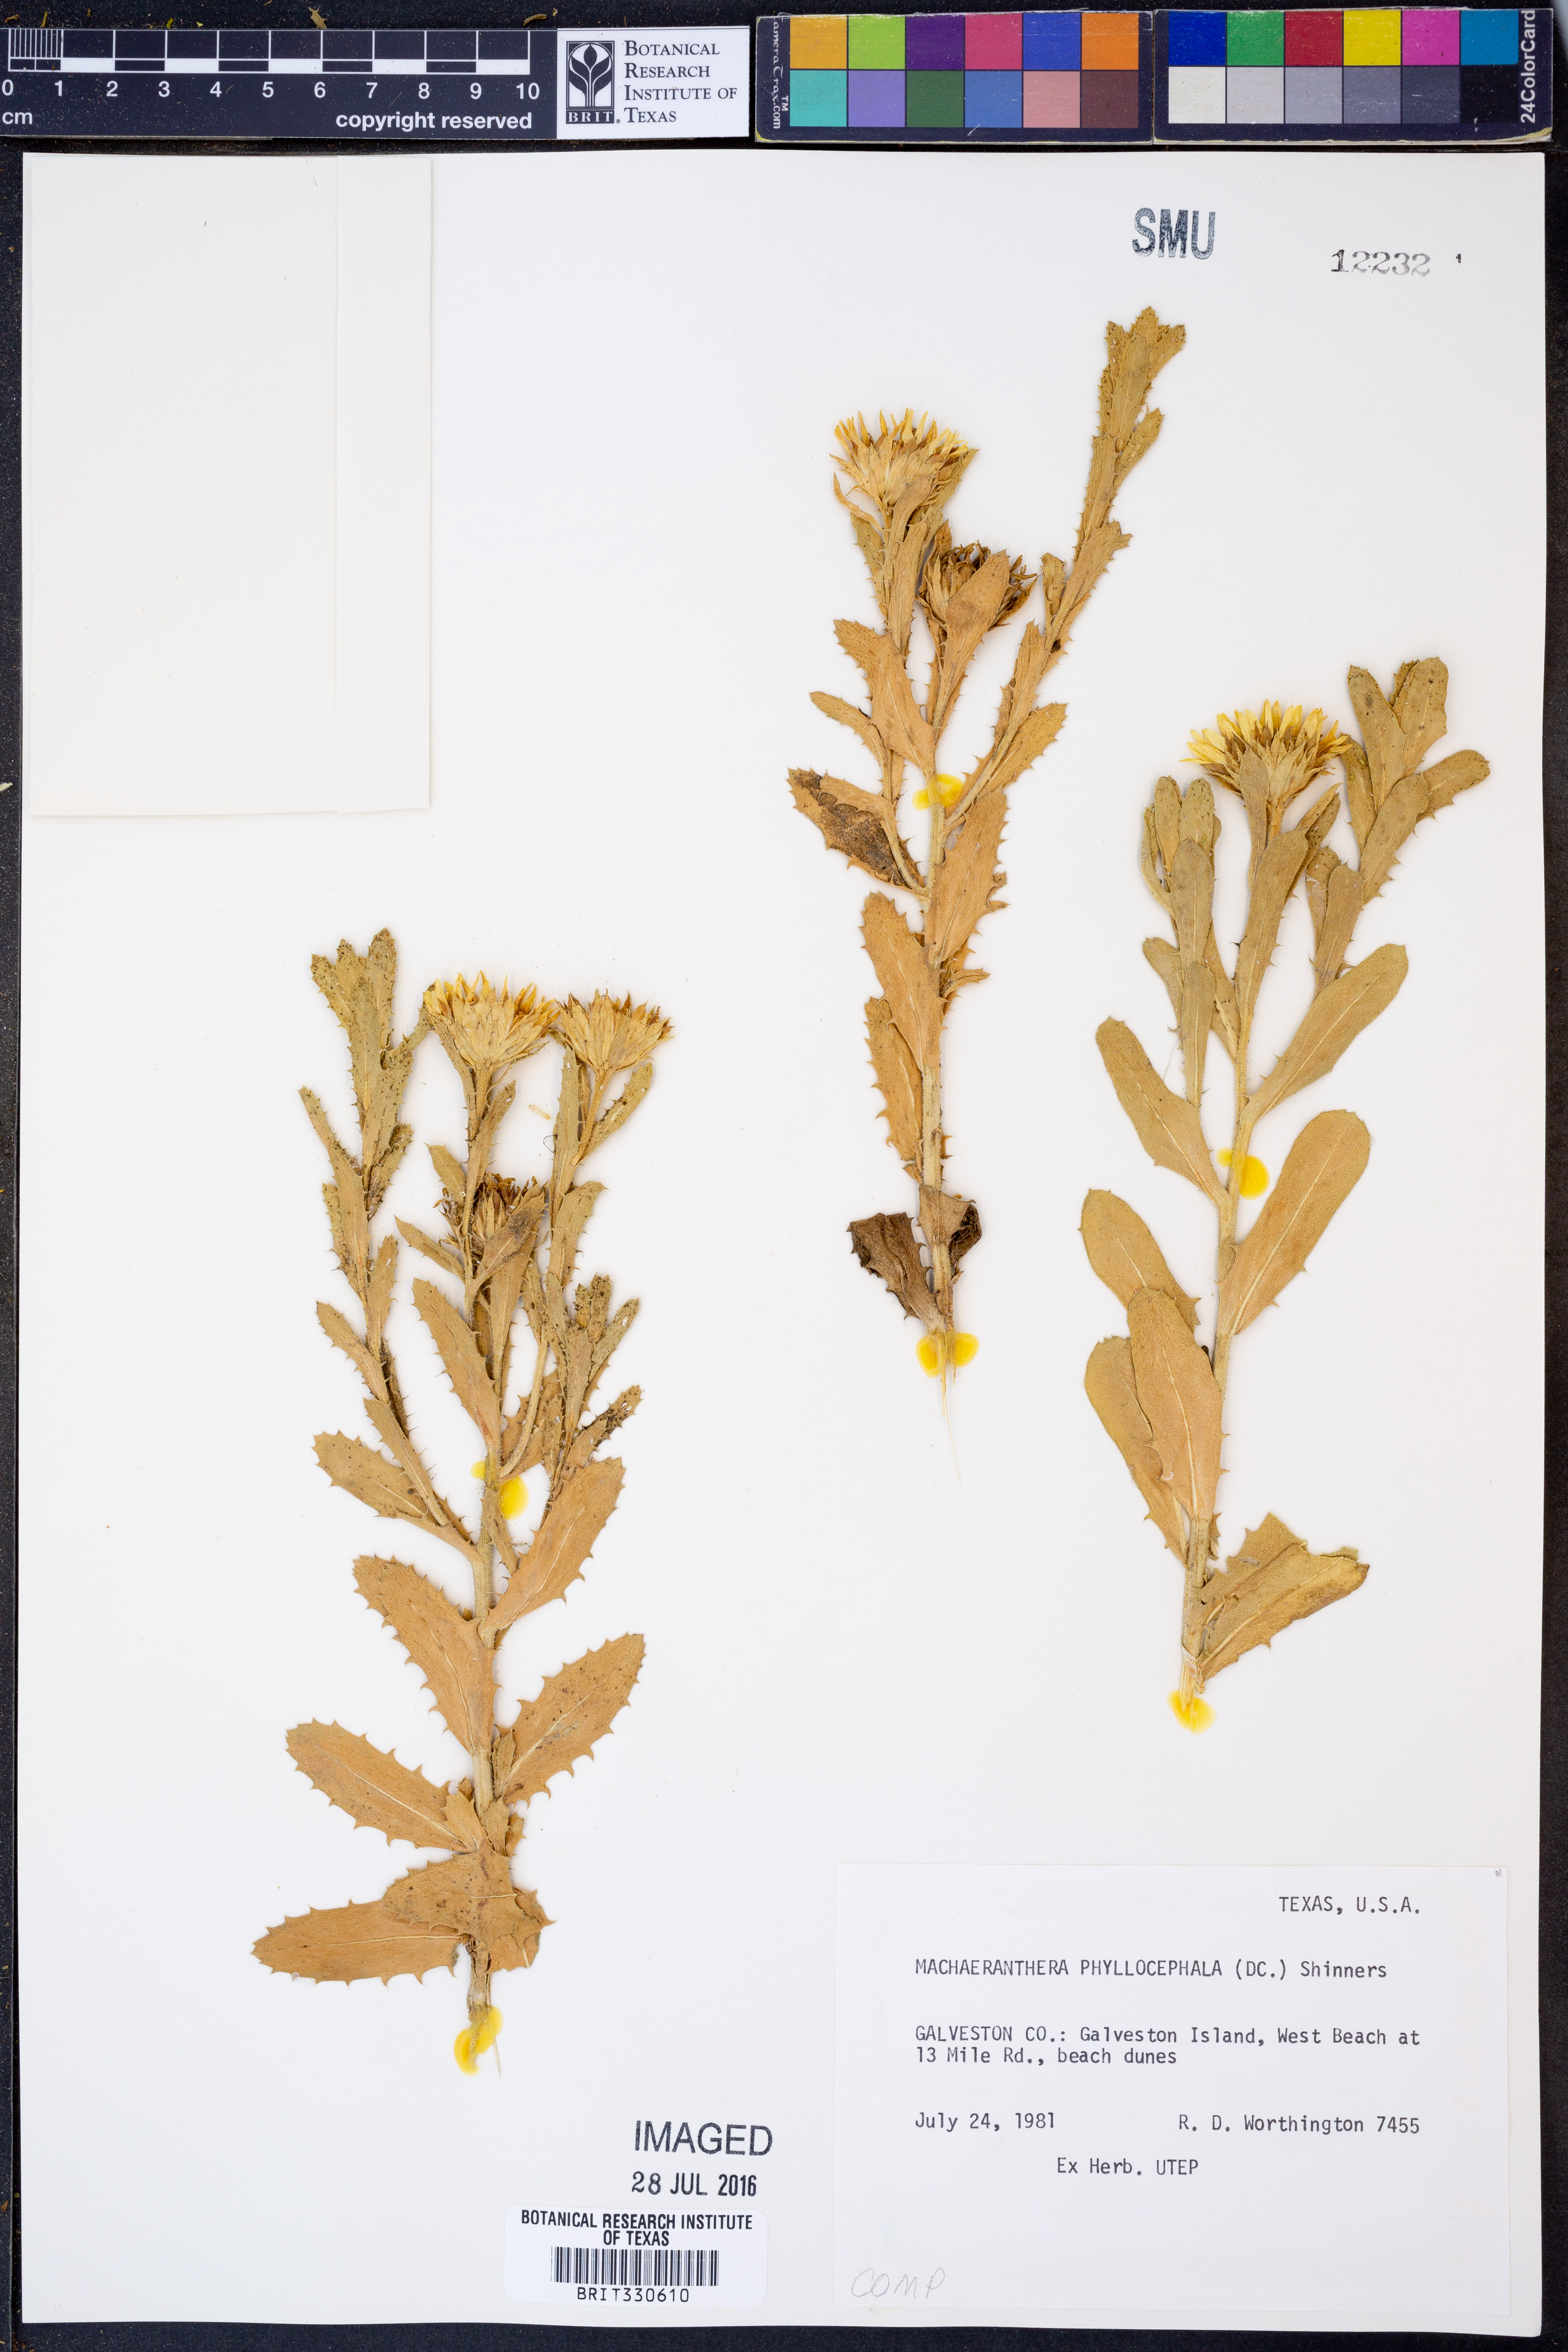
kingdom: Plantae
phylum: Tracheophyta
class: Magnoliopsida
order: Asterales
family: Asteraceae
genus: Rayjacksonia
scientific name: Rayjacksonia phyllocephala
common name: Gulf coast camphor daisy
